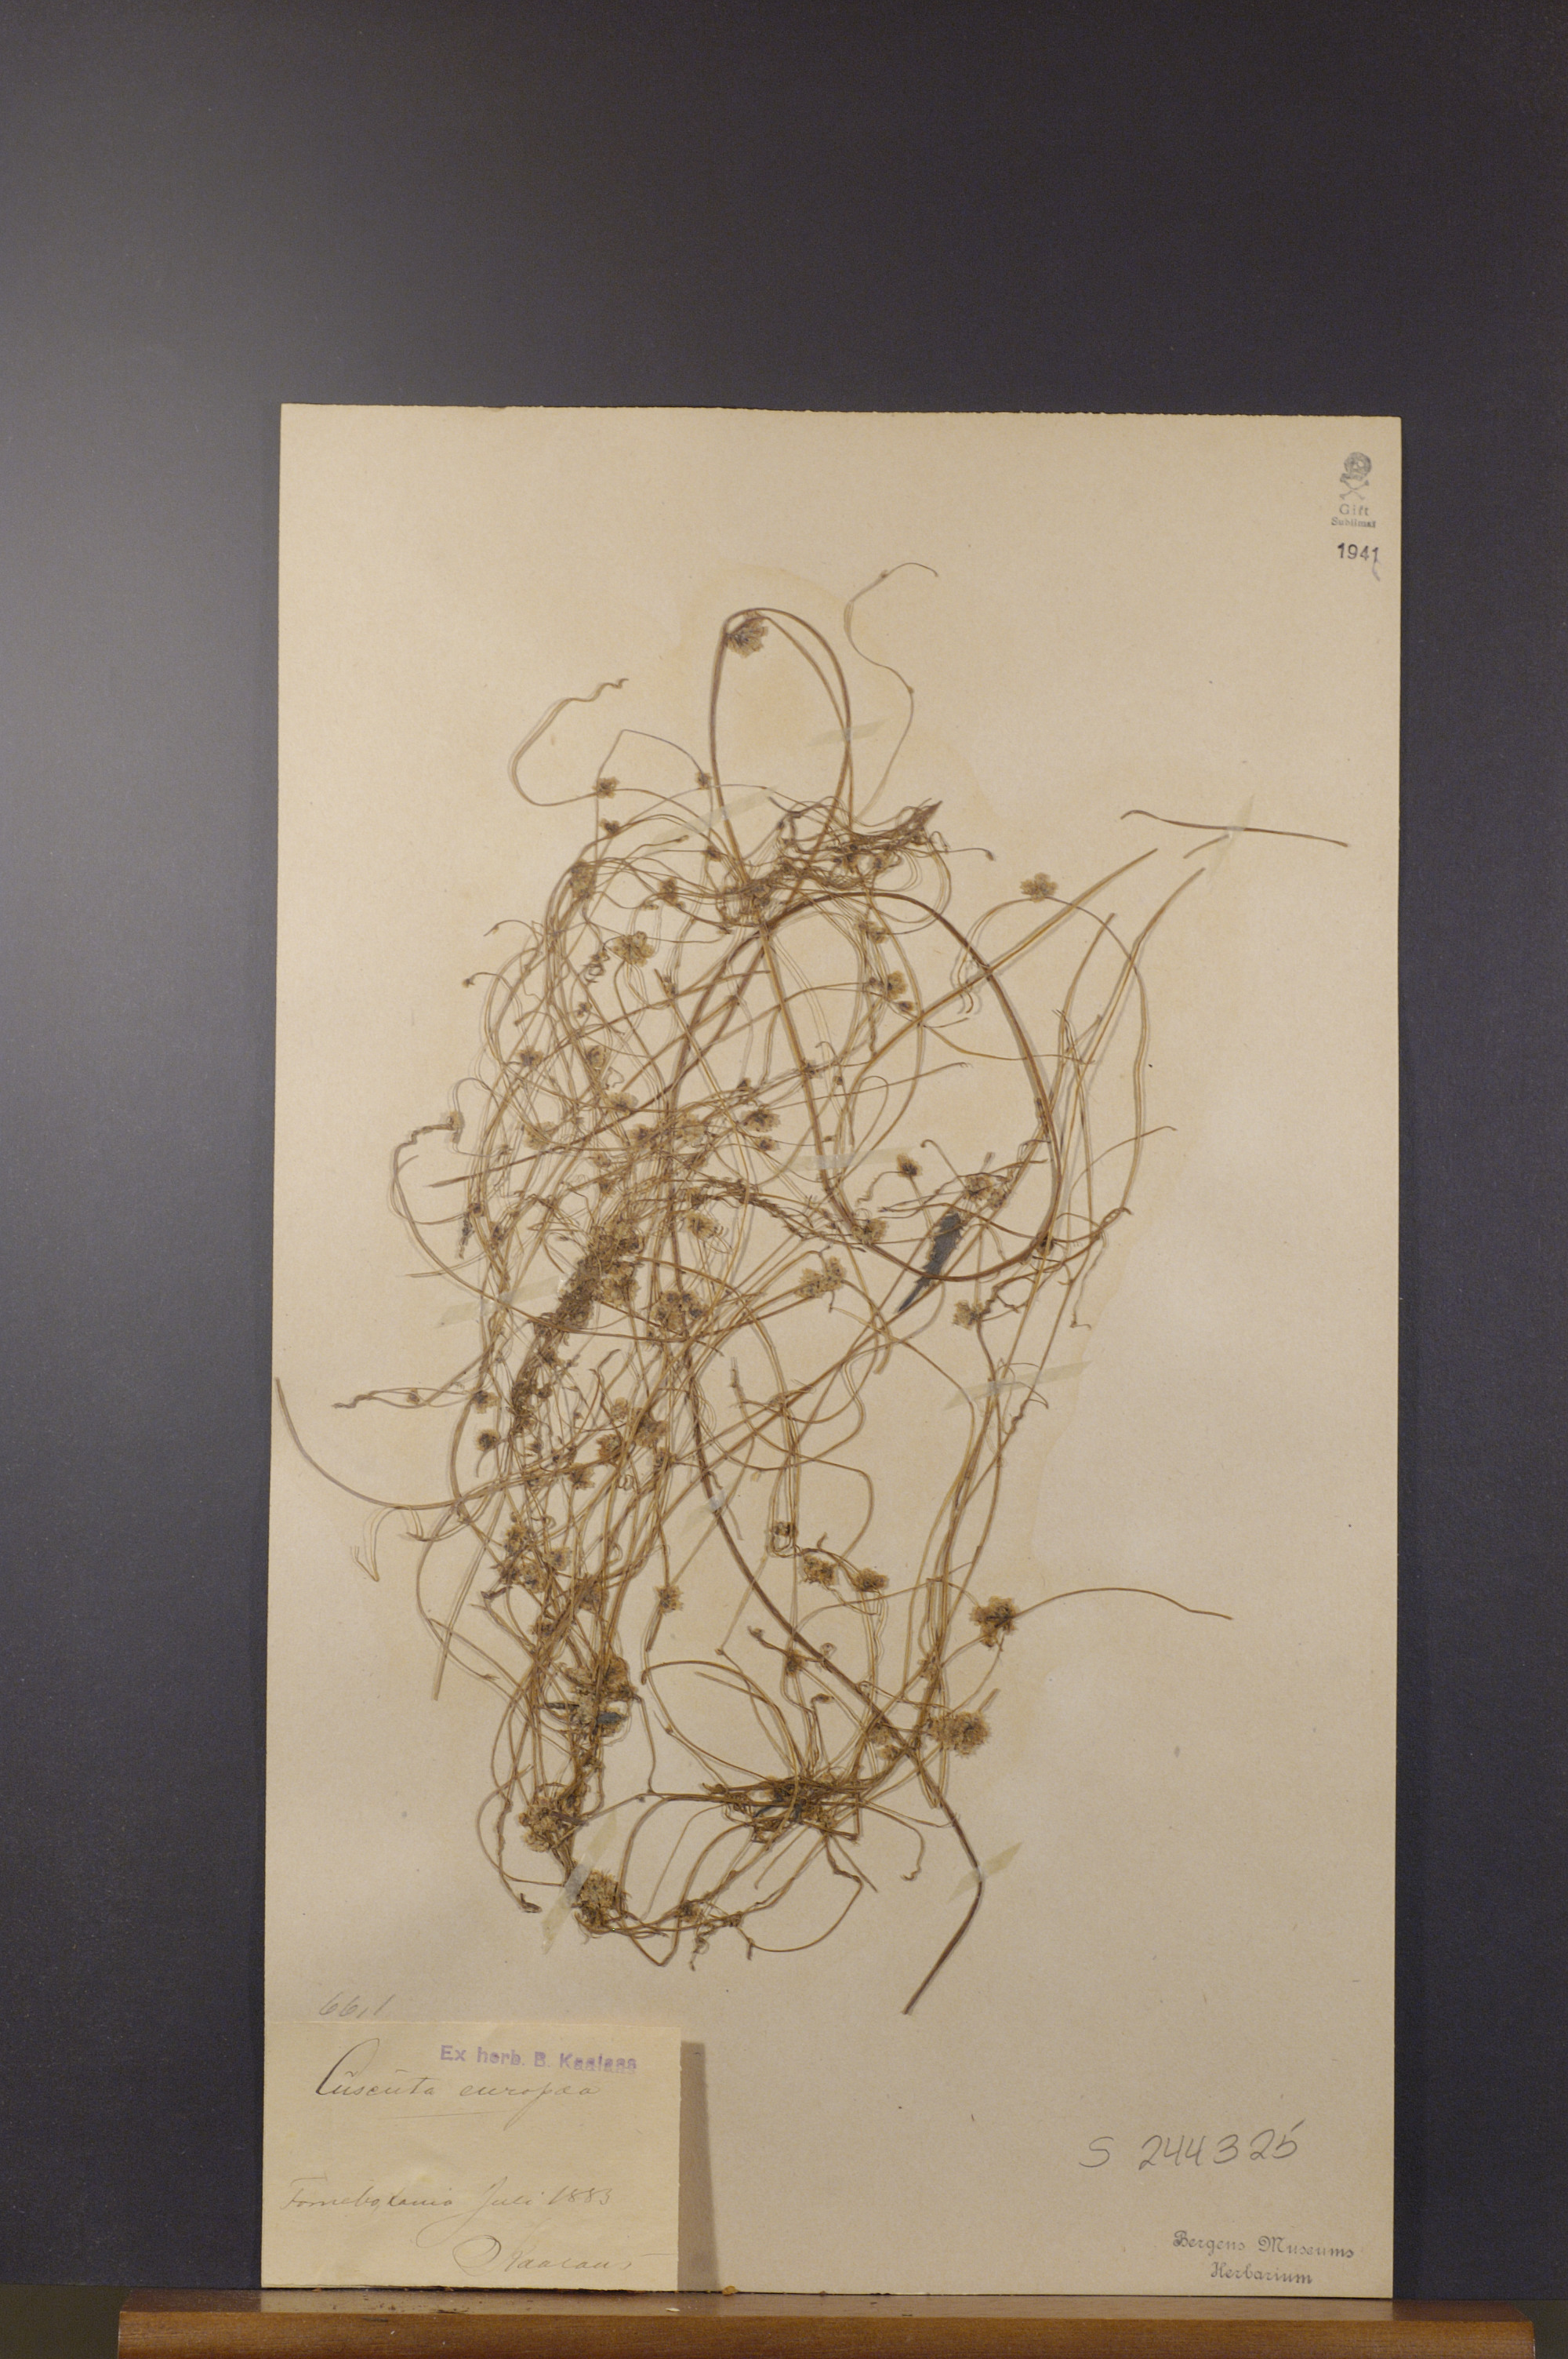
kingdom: Plantae
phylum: Tracheophyta
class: Magnoliopsida
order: Solanales
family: Convolvulaceae
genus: Cuscuta
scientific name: Cuscuta europaea
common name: Greater dodder
